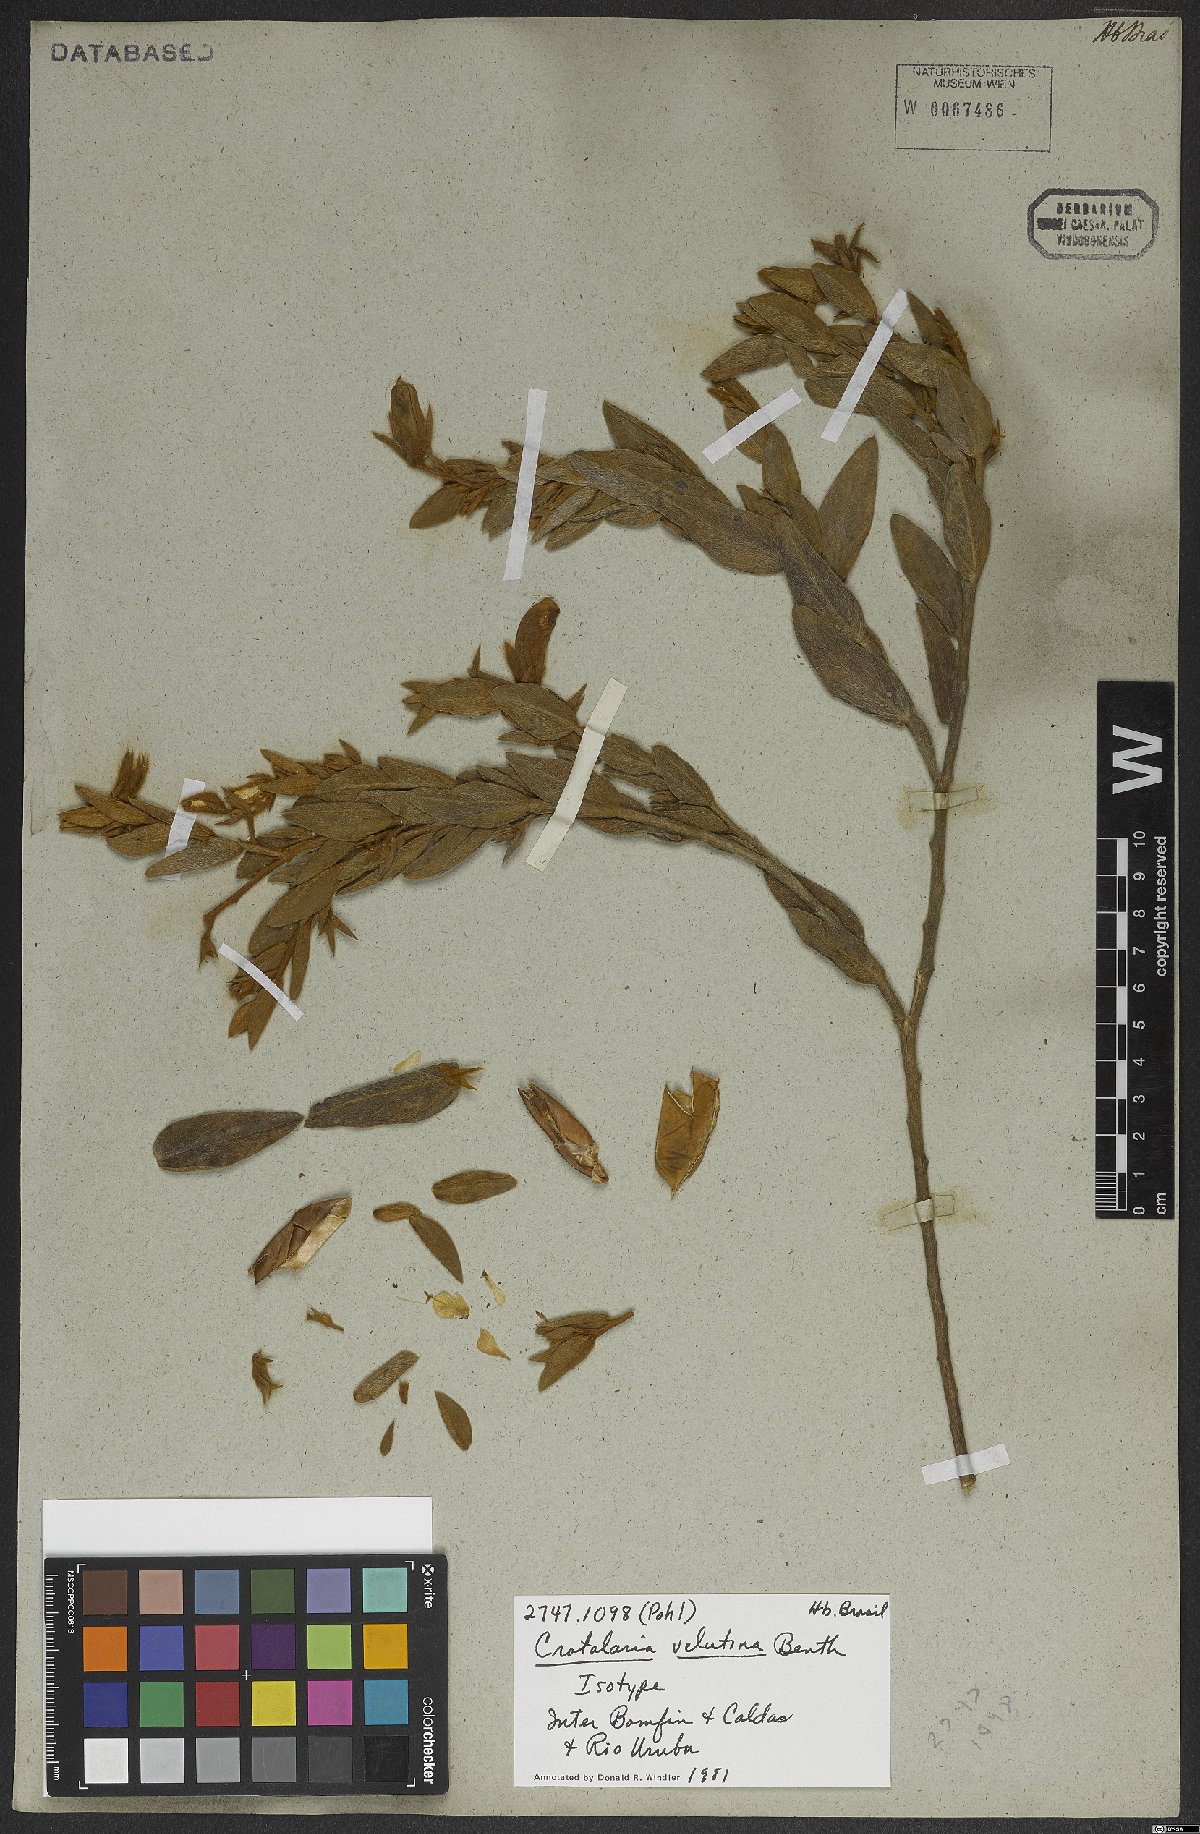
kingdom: Plantae
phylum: Tracheophyta
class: Magnoliopsida
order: Fabales
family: Fabaceae
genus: Crotalaria
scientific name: Crotalaria velutina
